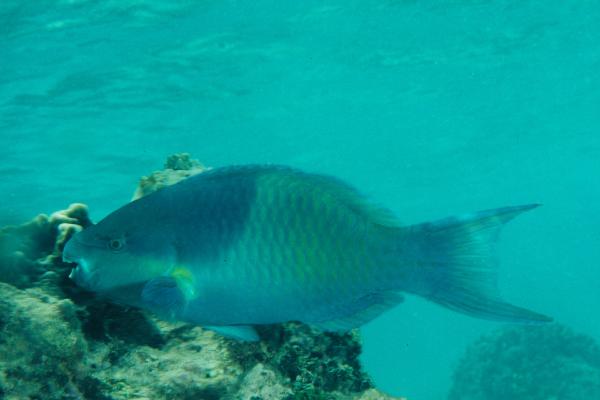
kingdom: Animalia
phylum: Chordata
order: Perciformes
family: Scaridae
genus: Scarus
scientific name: Scarus scaber
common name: Dusky-capped parrotfish
